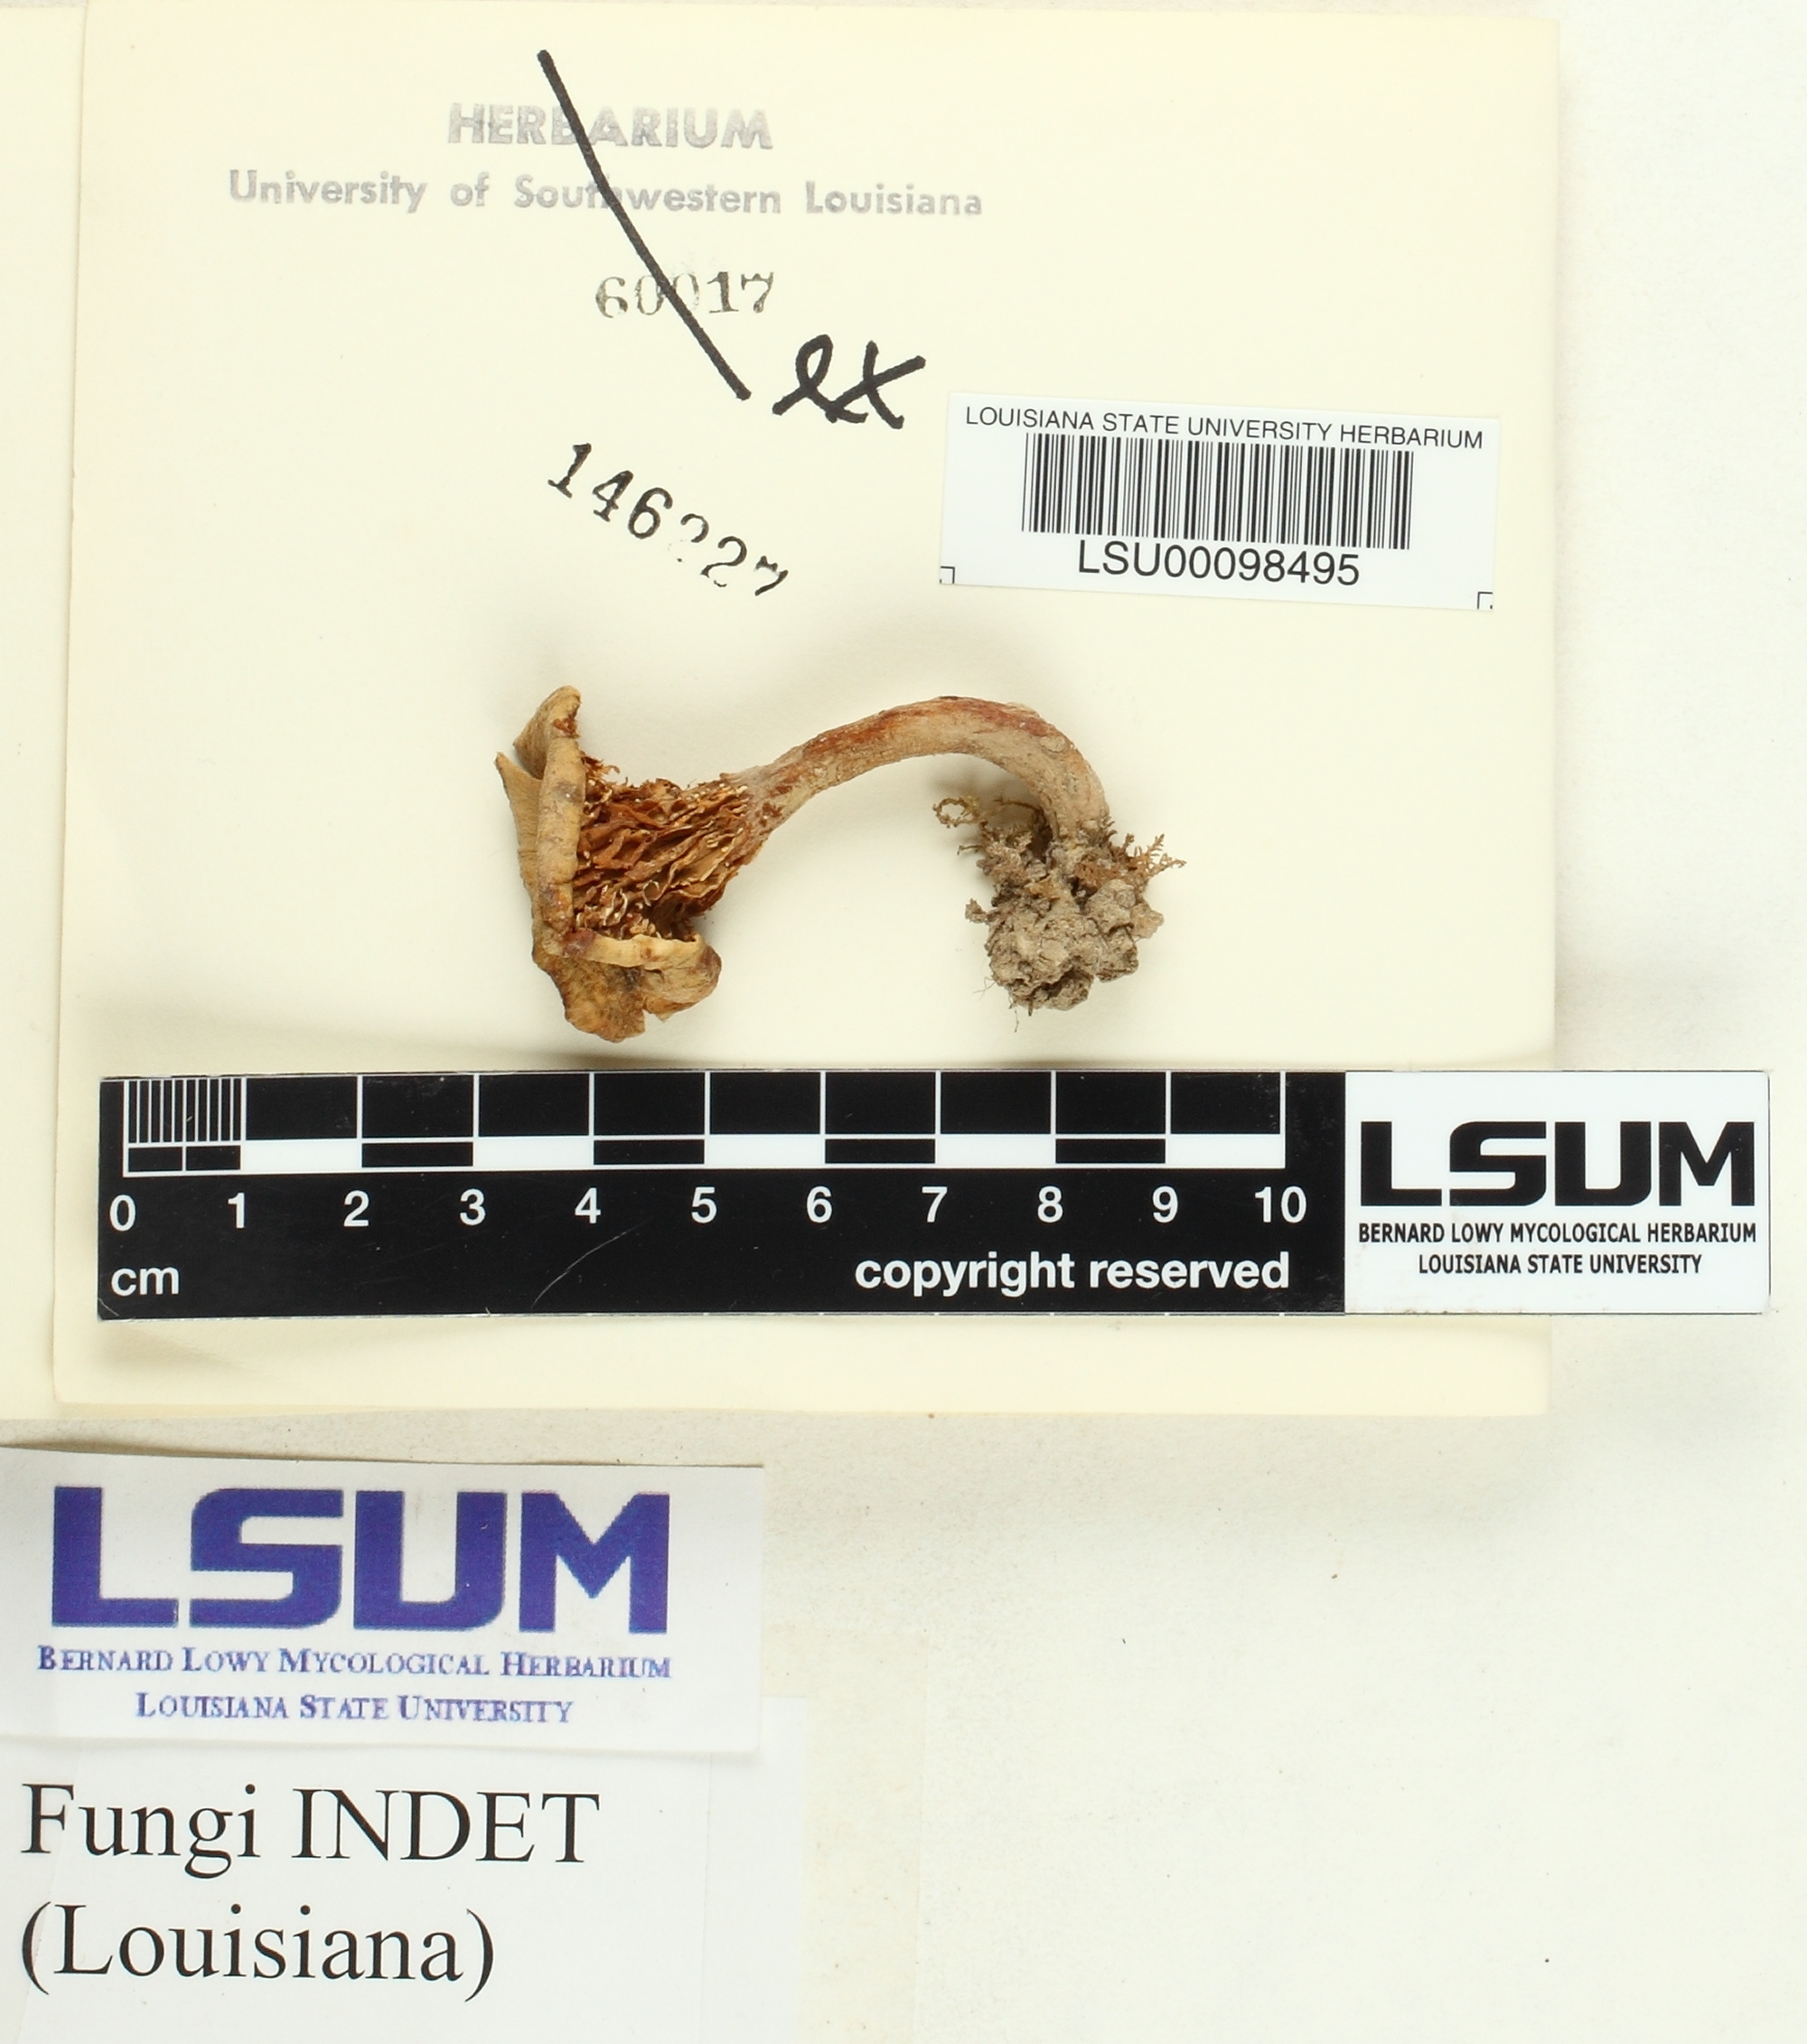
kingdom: Fungi
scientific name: Fungi
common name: Fungi
